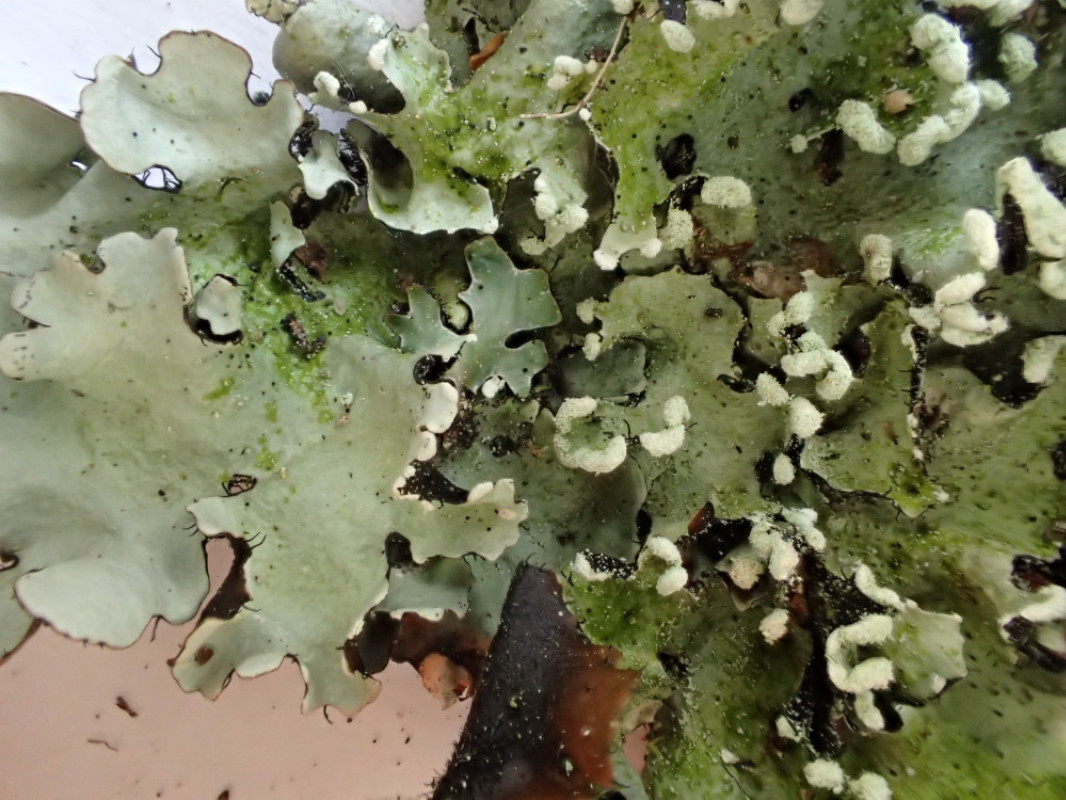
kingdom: Fungi
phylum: Ascomycota
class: Lecanoromycetes
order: Lecanorales
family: Parmeliaceae
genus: Parmotrema
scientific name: Parmotrema perlatum
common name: trådet skållav
